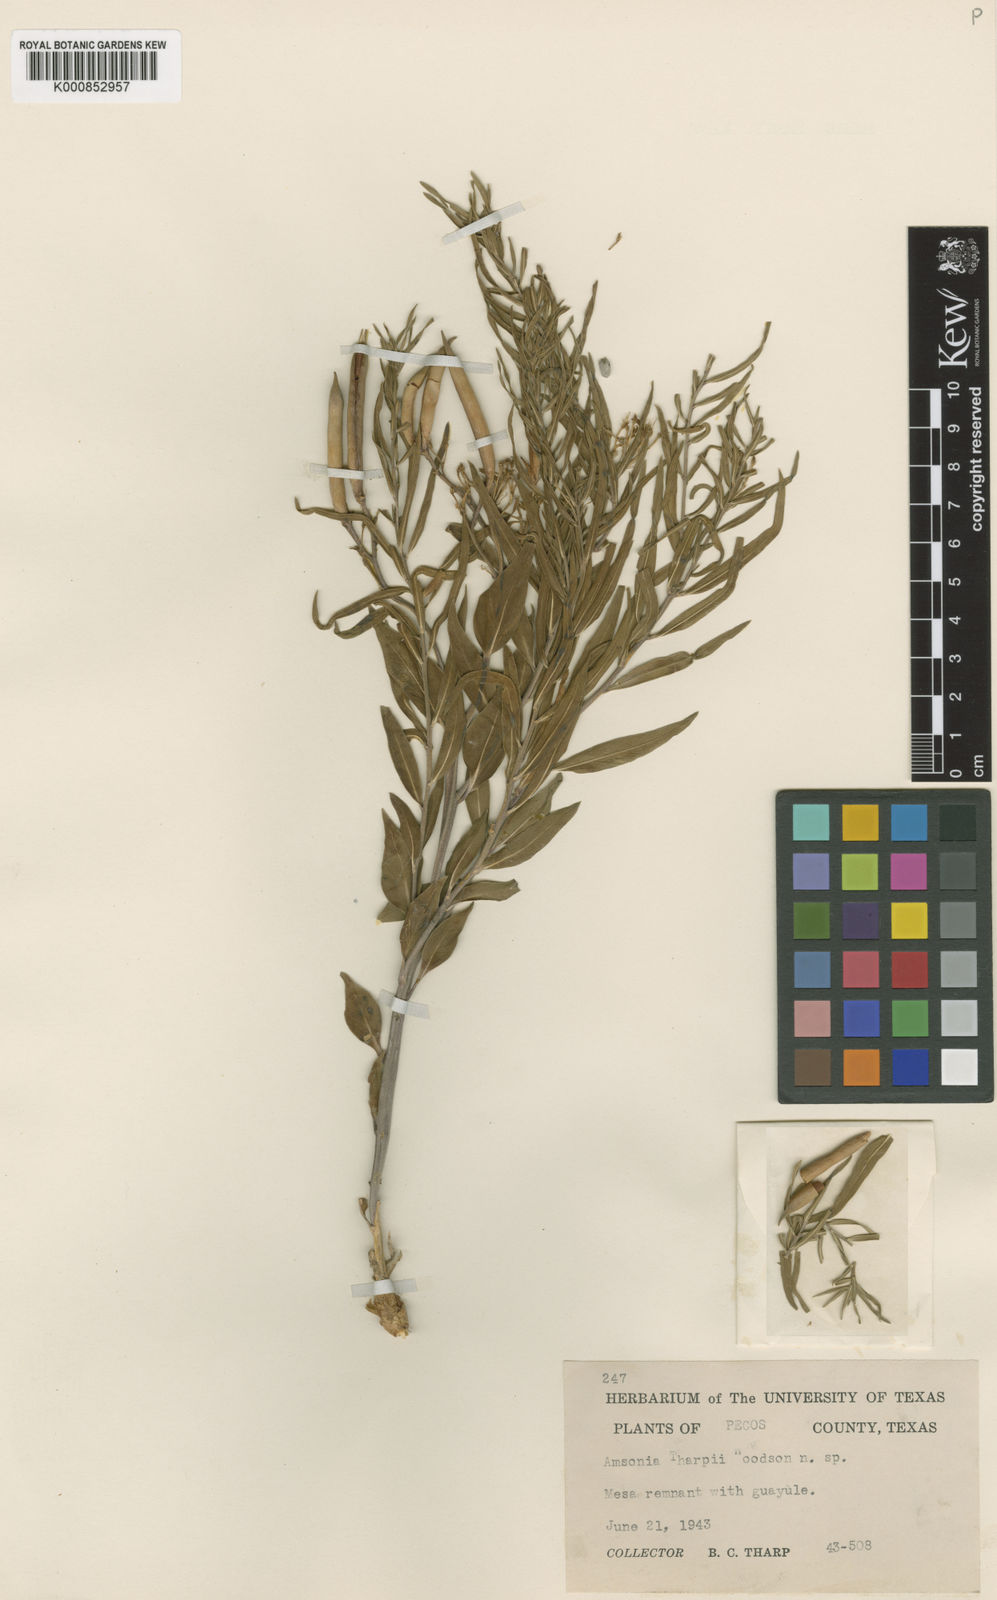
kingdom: Plantae
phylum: Tracheophyta
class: Magnoliopsida
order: Gentianales
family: Apocynaceae
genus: Amsonia
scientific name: Amsonia tharpii
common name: Feltleaf bluestar
